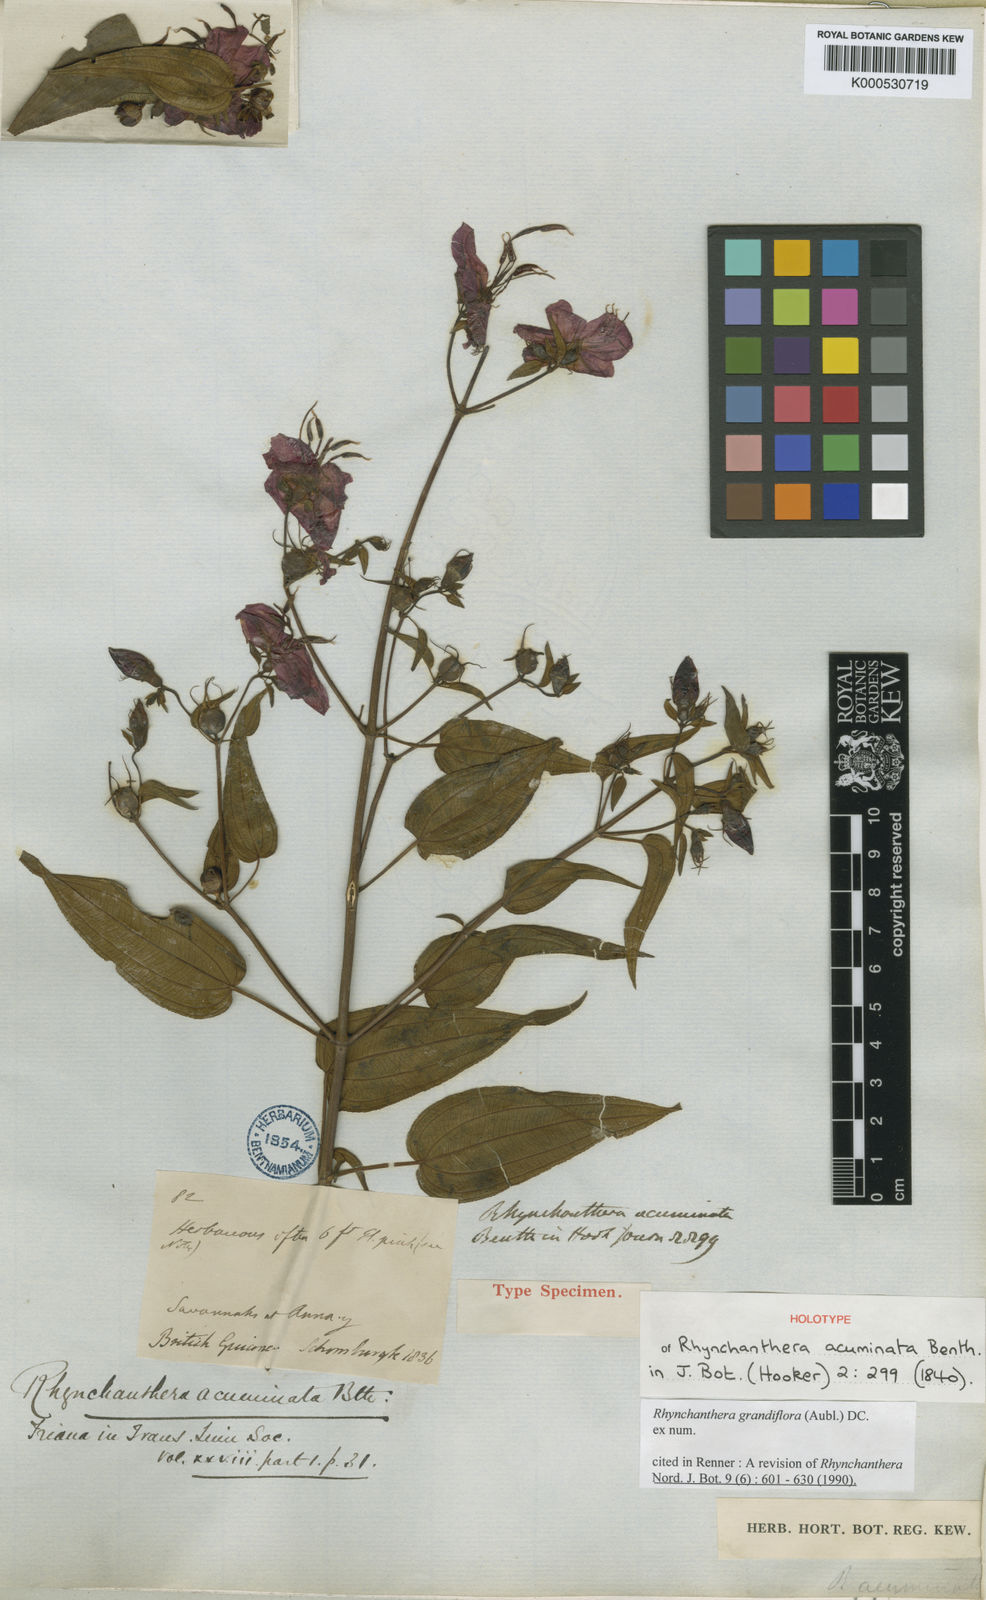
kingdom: Plantae
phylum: Tracheophyta
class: Magnoliopsida
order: Myrtales
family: Melastomataceae
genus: Rhynchanthera
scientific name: Rhynchanthera grandiflora
